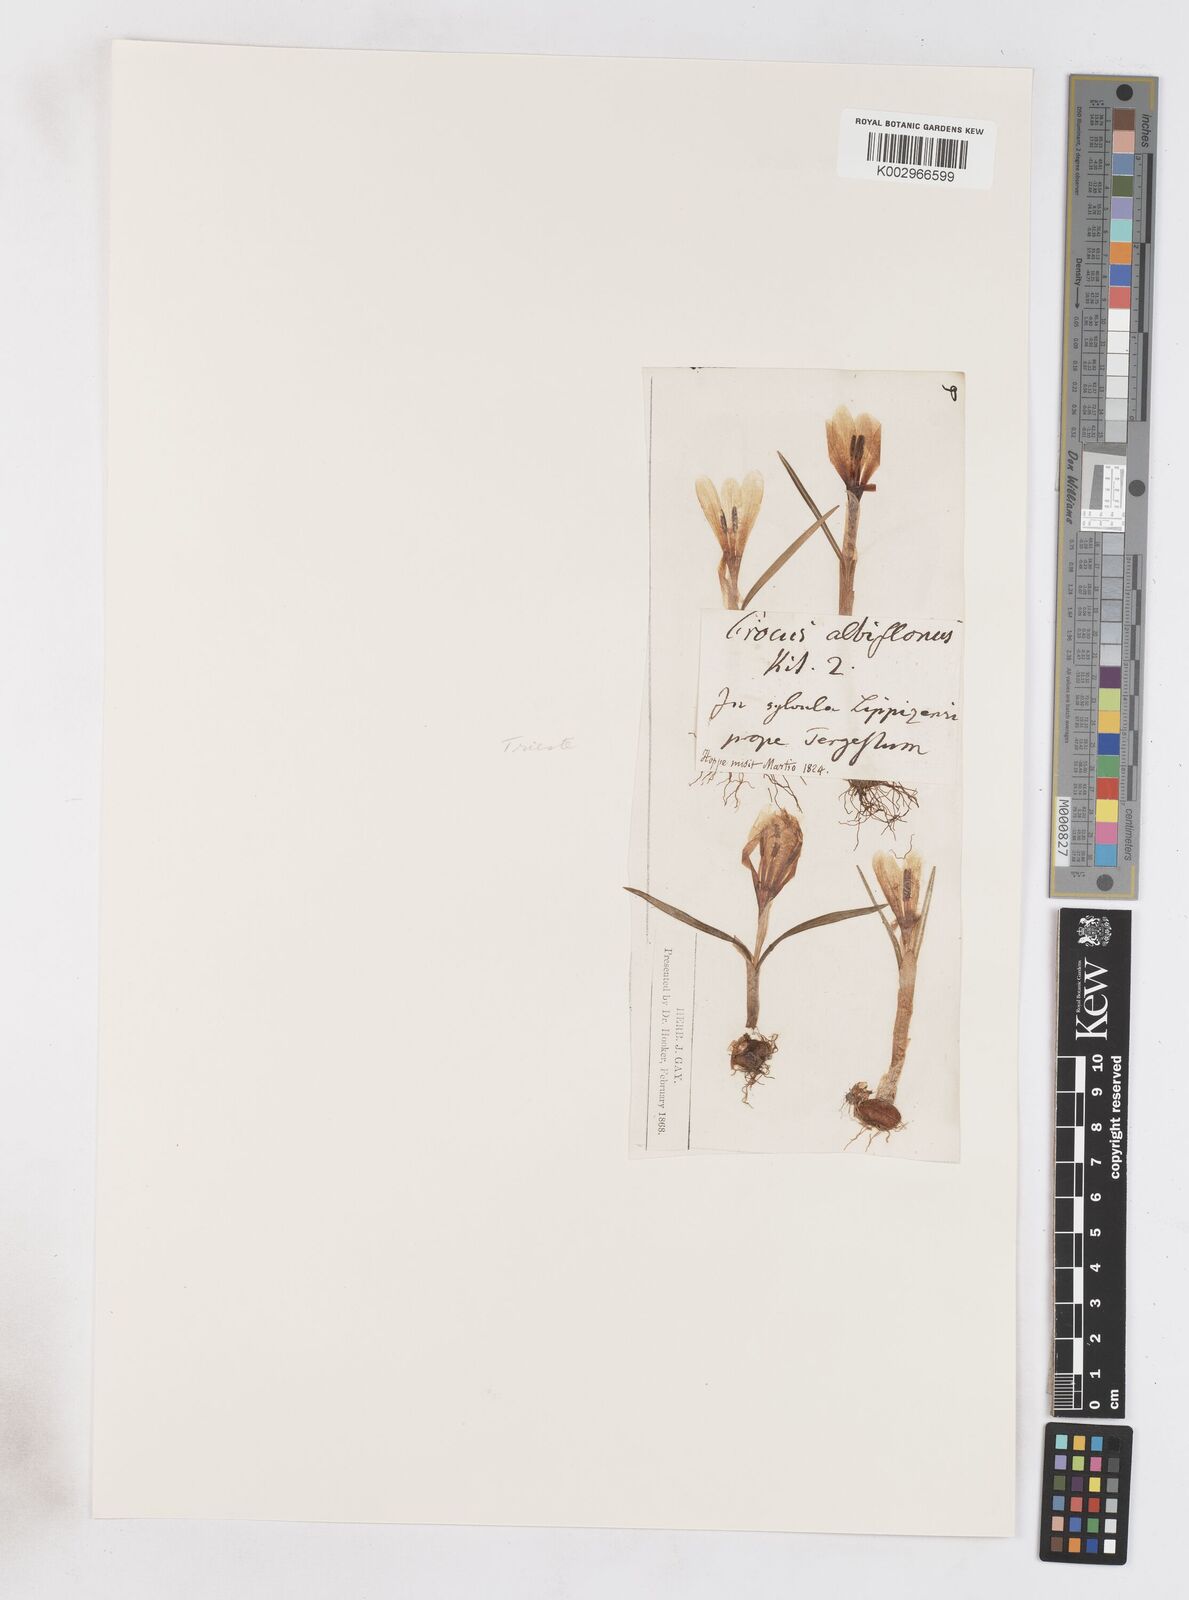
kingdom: Plantae
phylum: Tracheophyta
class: Liliopsida
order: Asparagales
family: Iridaceae
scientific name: Iridaceae
